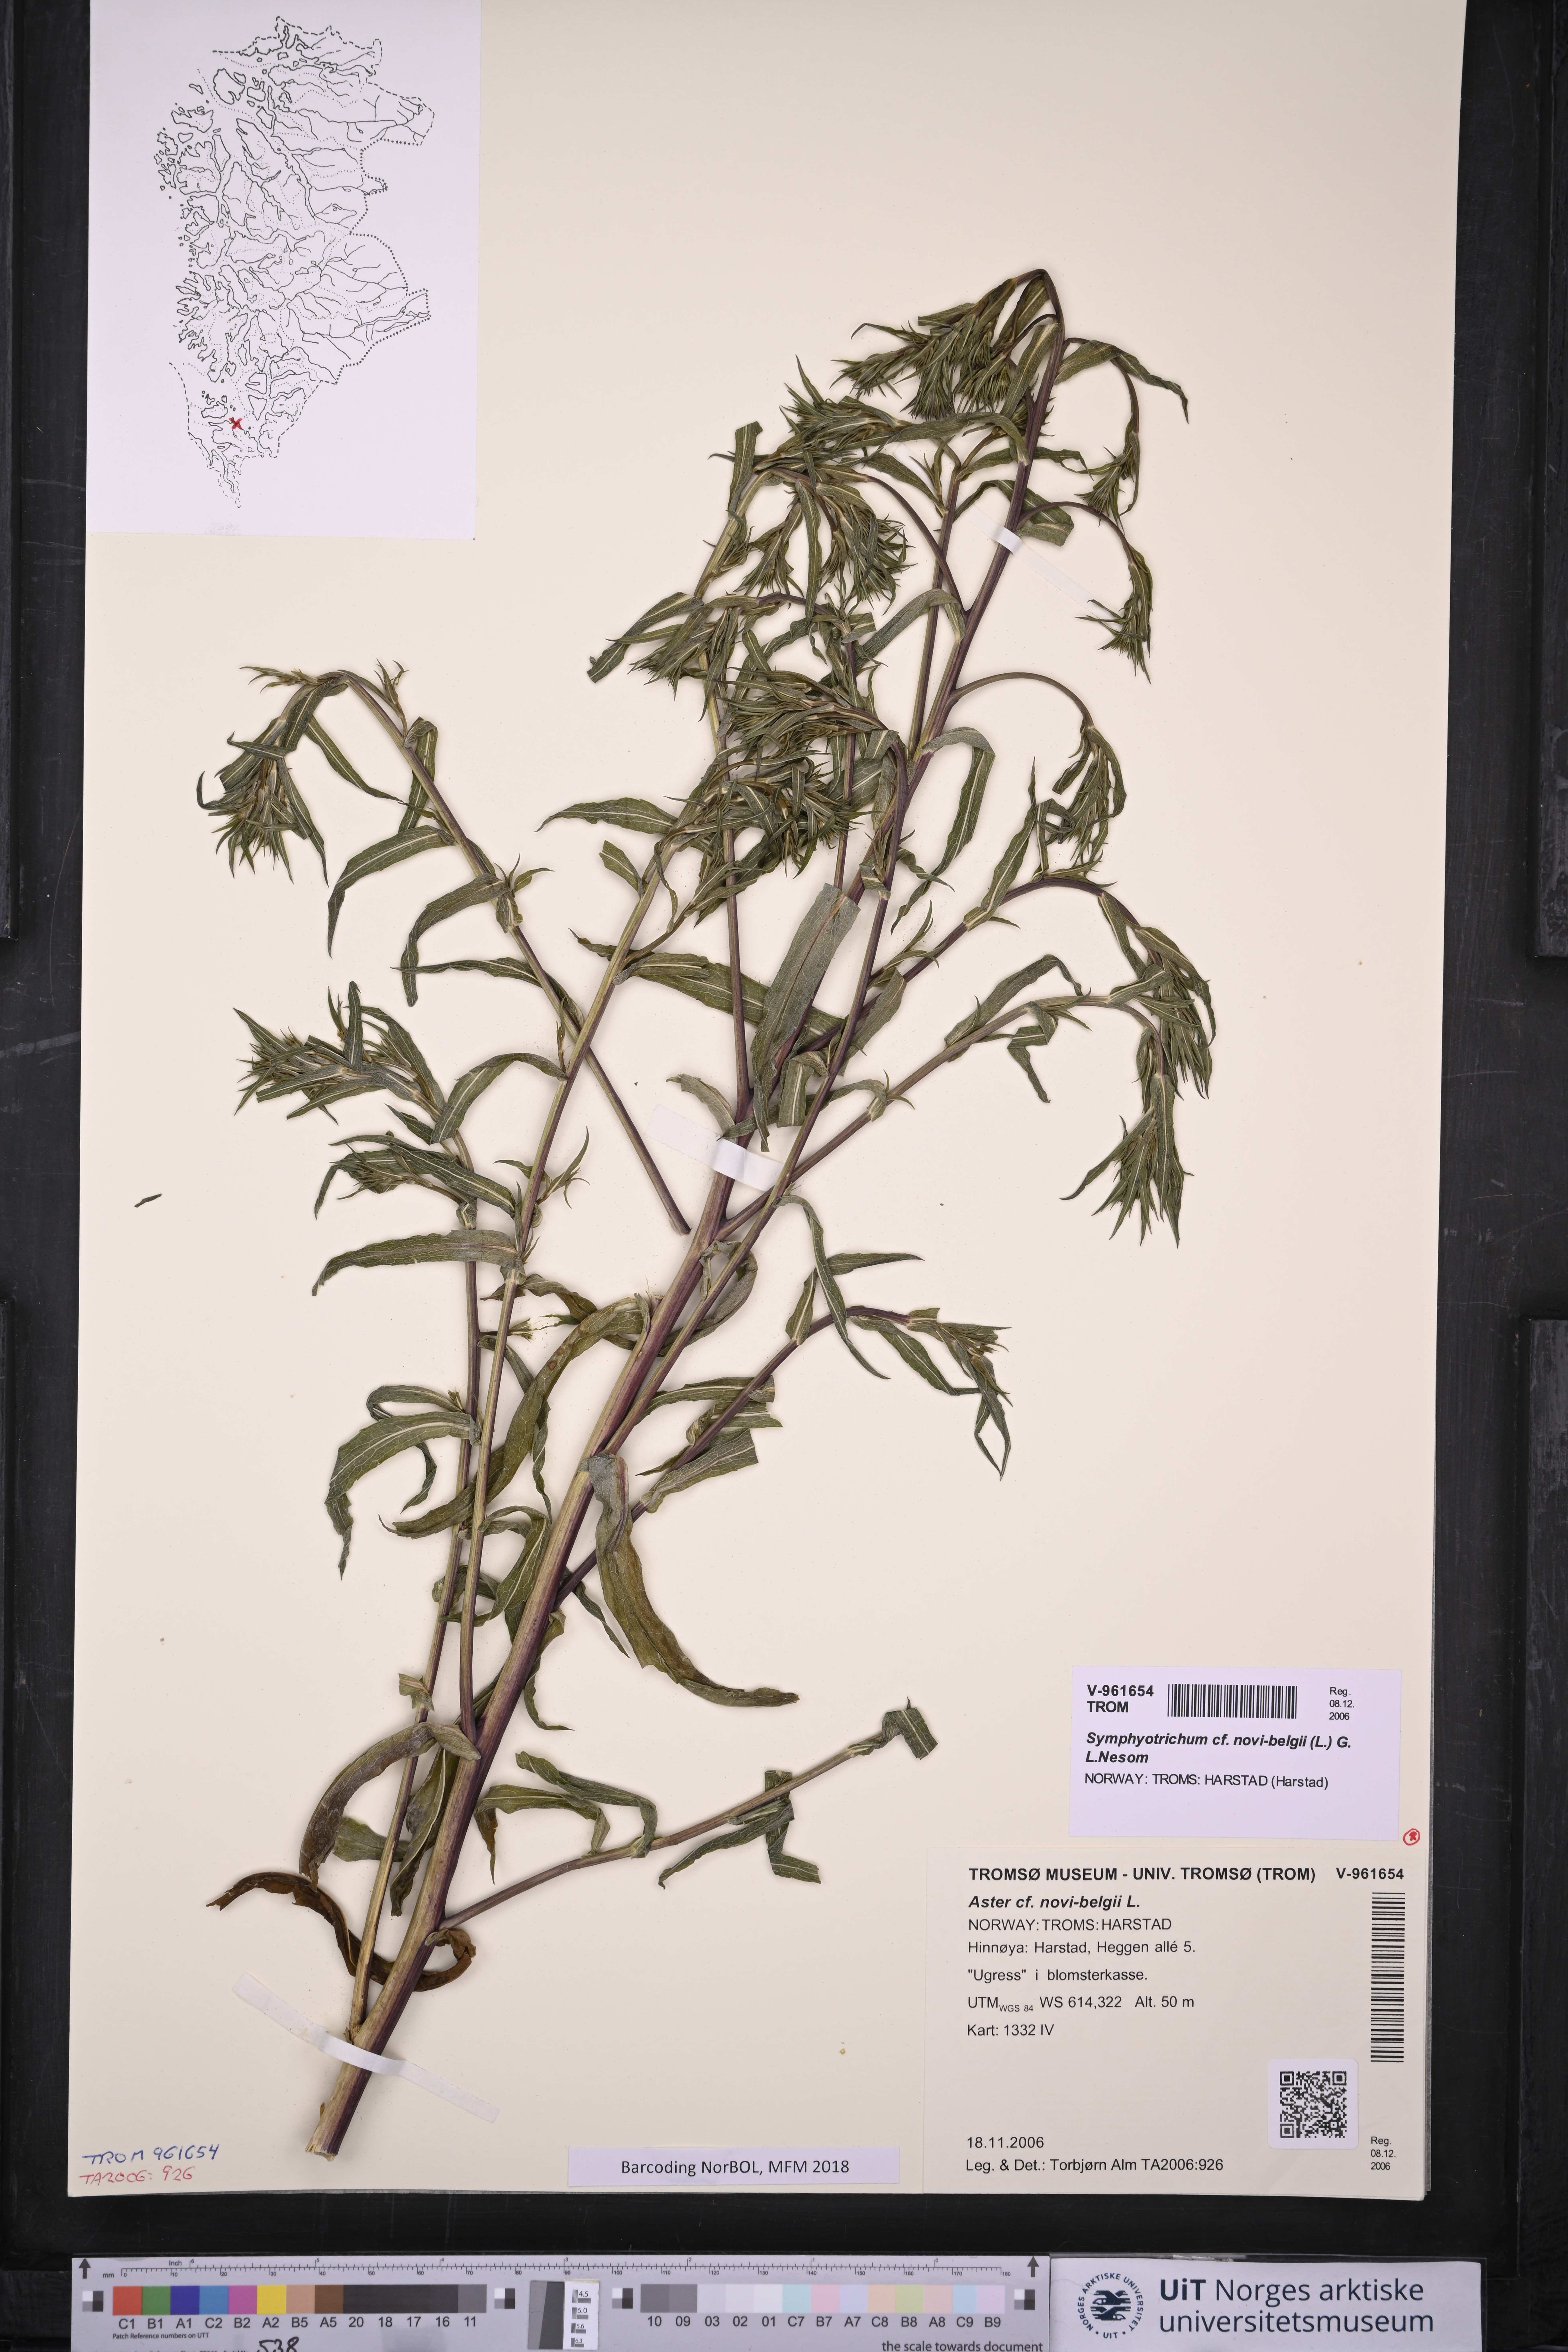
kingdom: Plantae
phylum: Tracheophyta
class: Magnoliopsida
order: Asterales
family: Asteraceae
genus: Symphyotrichum
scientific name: Symphyotrichum novi-belgii
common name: Michaelmas daisy
